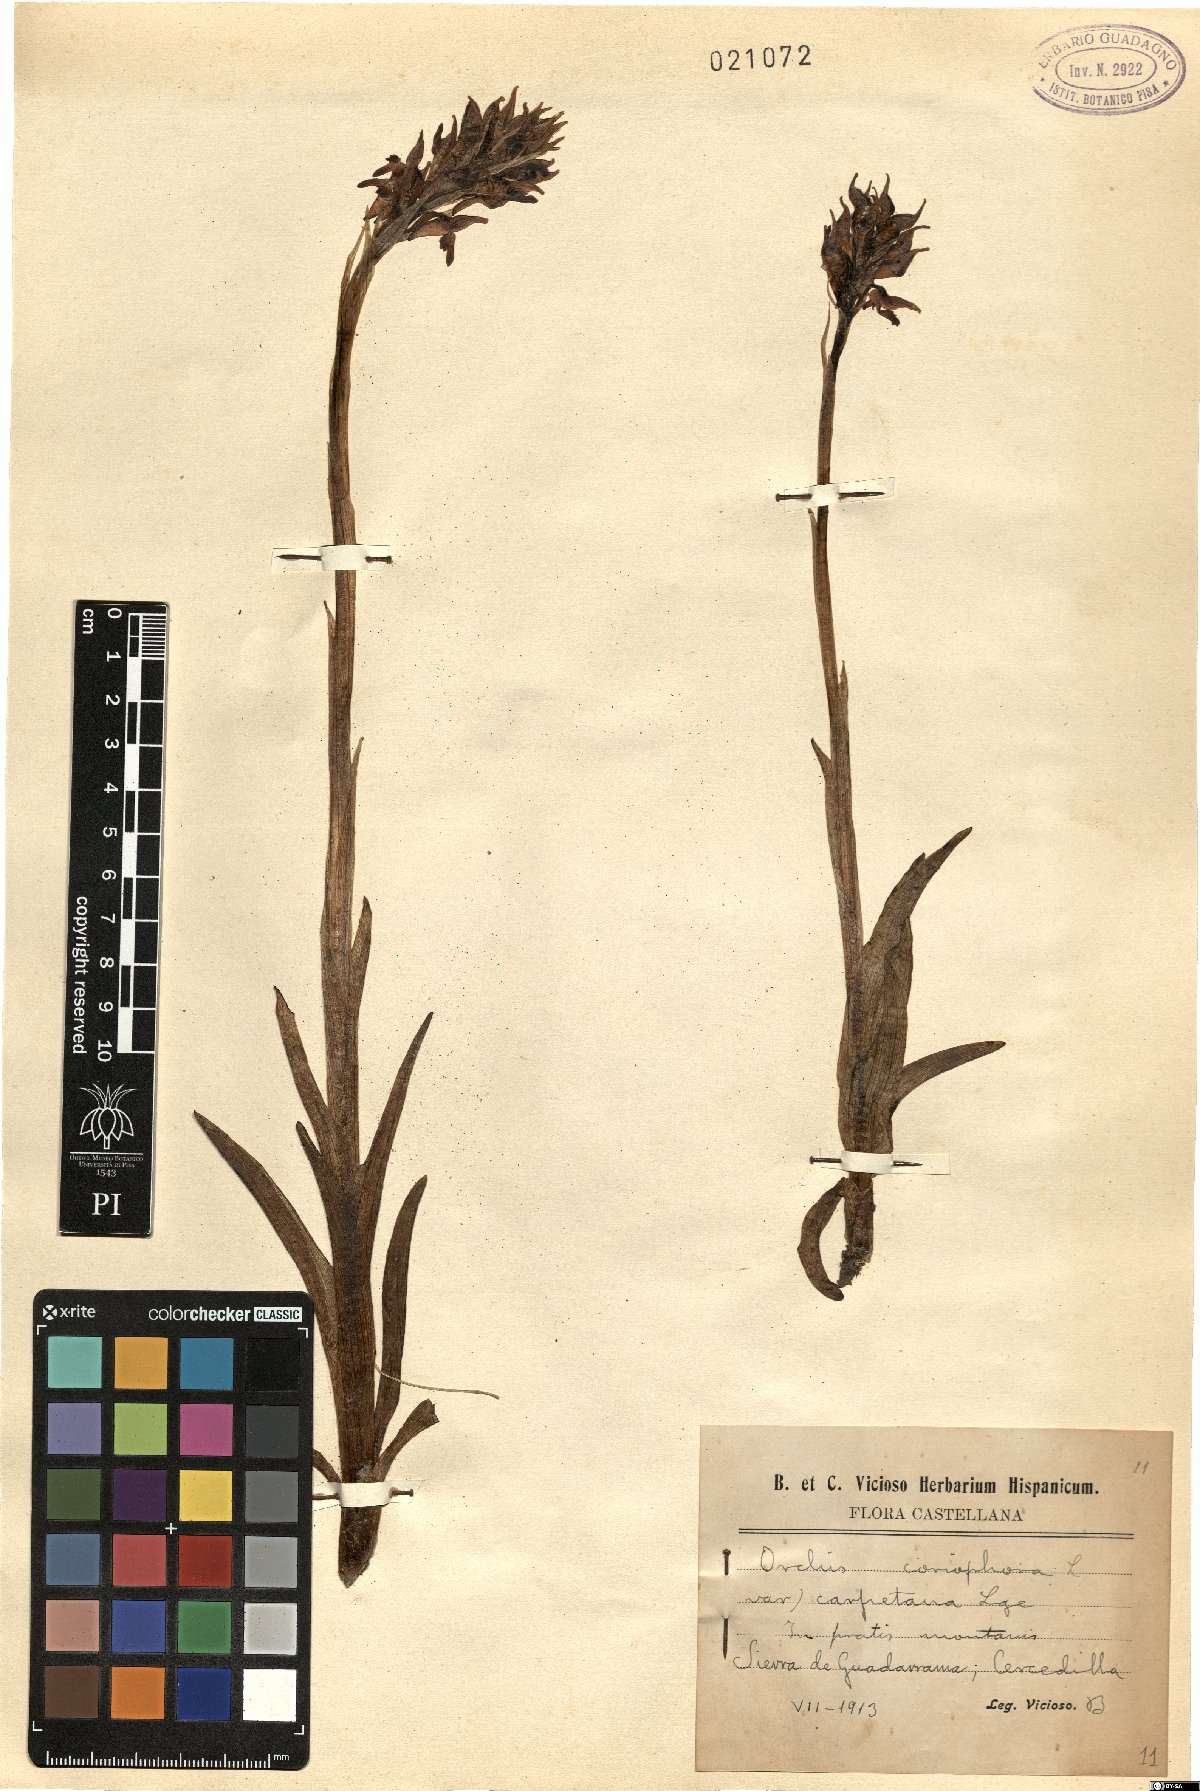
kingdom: Plantae
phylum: Tracheophyta
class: Liliopsida
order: Asparagales
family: Orchidaceae
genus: Anacamptis
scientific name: Anacamptis coriophora
